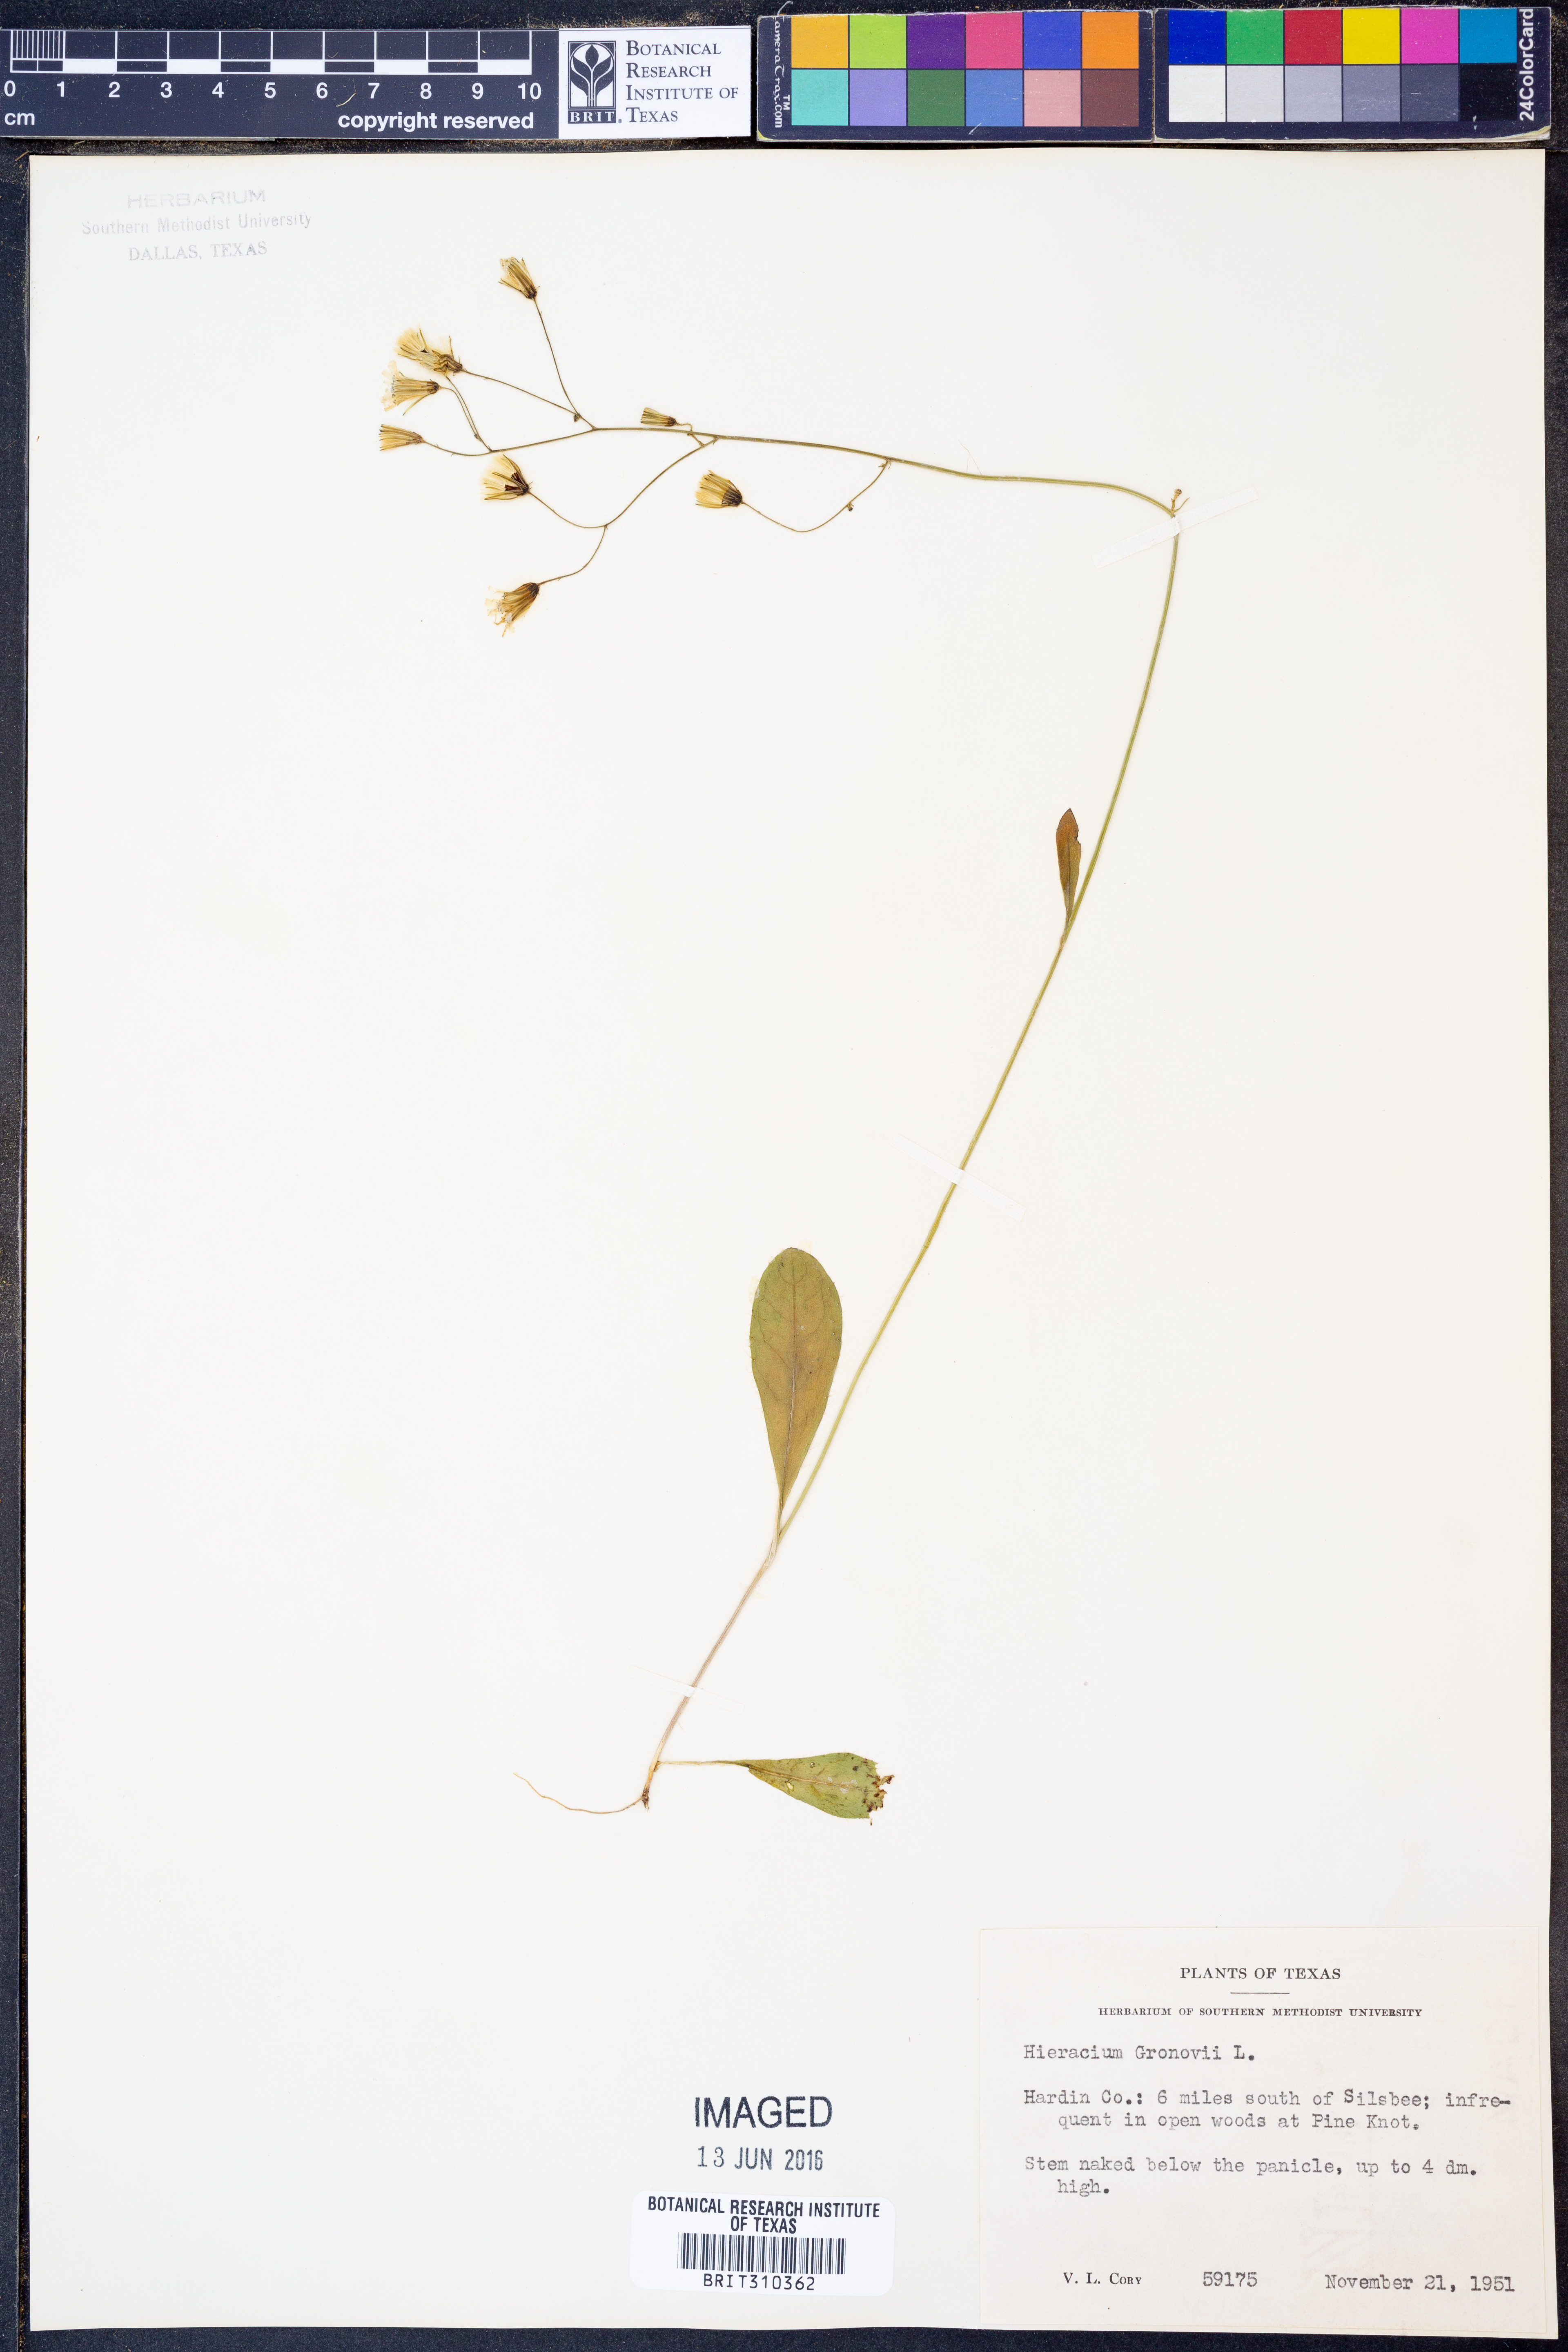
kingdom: Plantae
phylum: Tracheophyta
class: Magnoliopsida
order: Asterales
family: Asteraceae
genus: Hieracium
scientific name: Hieracium gronovii
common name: Beaked hawkweed
